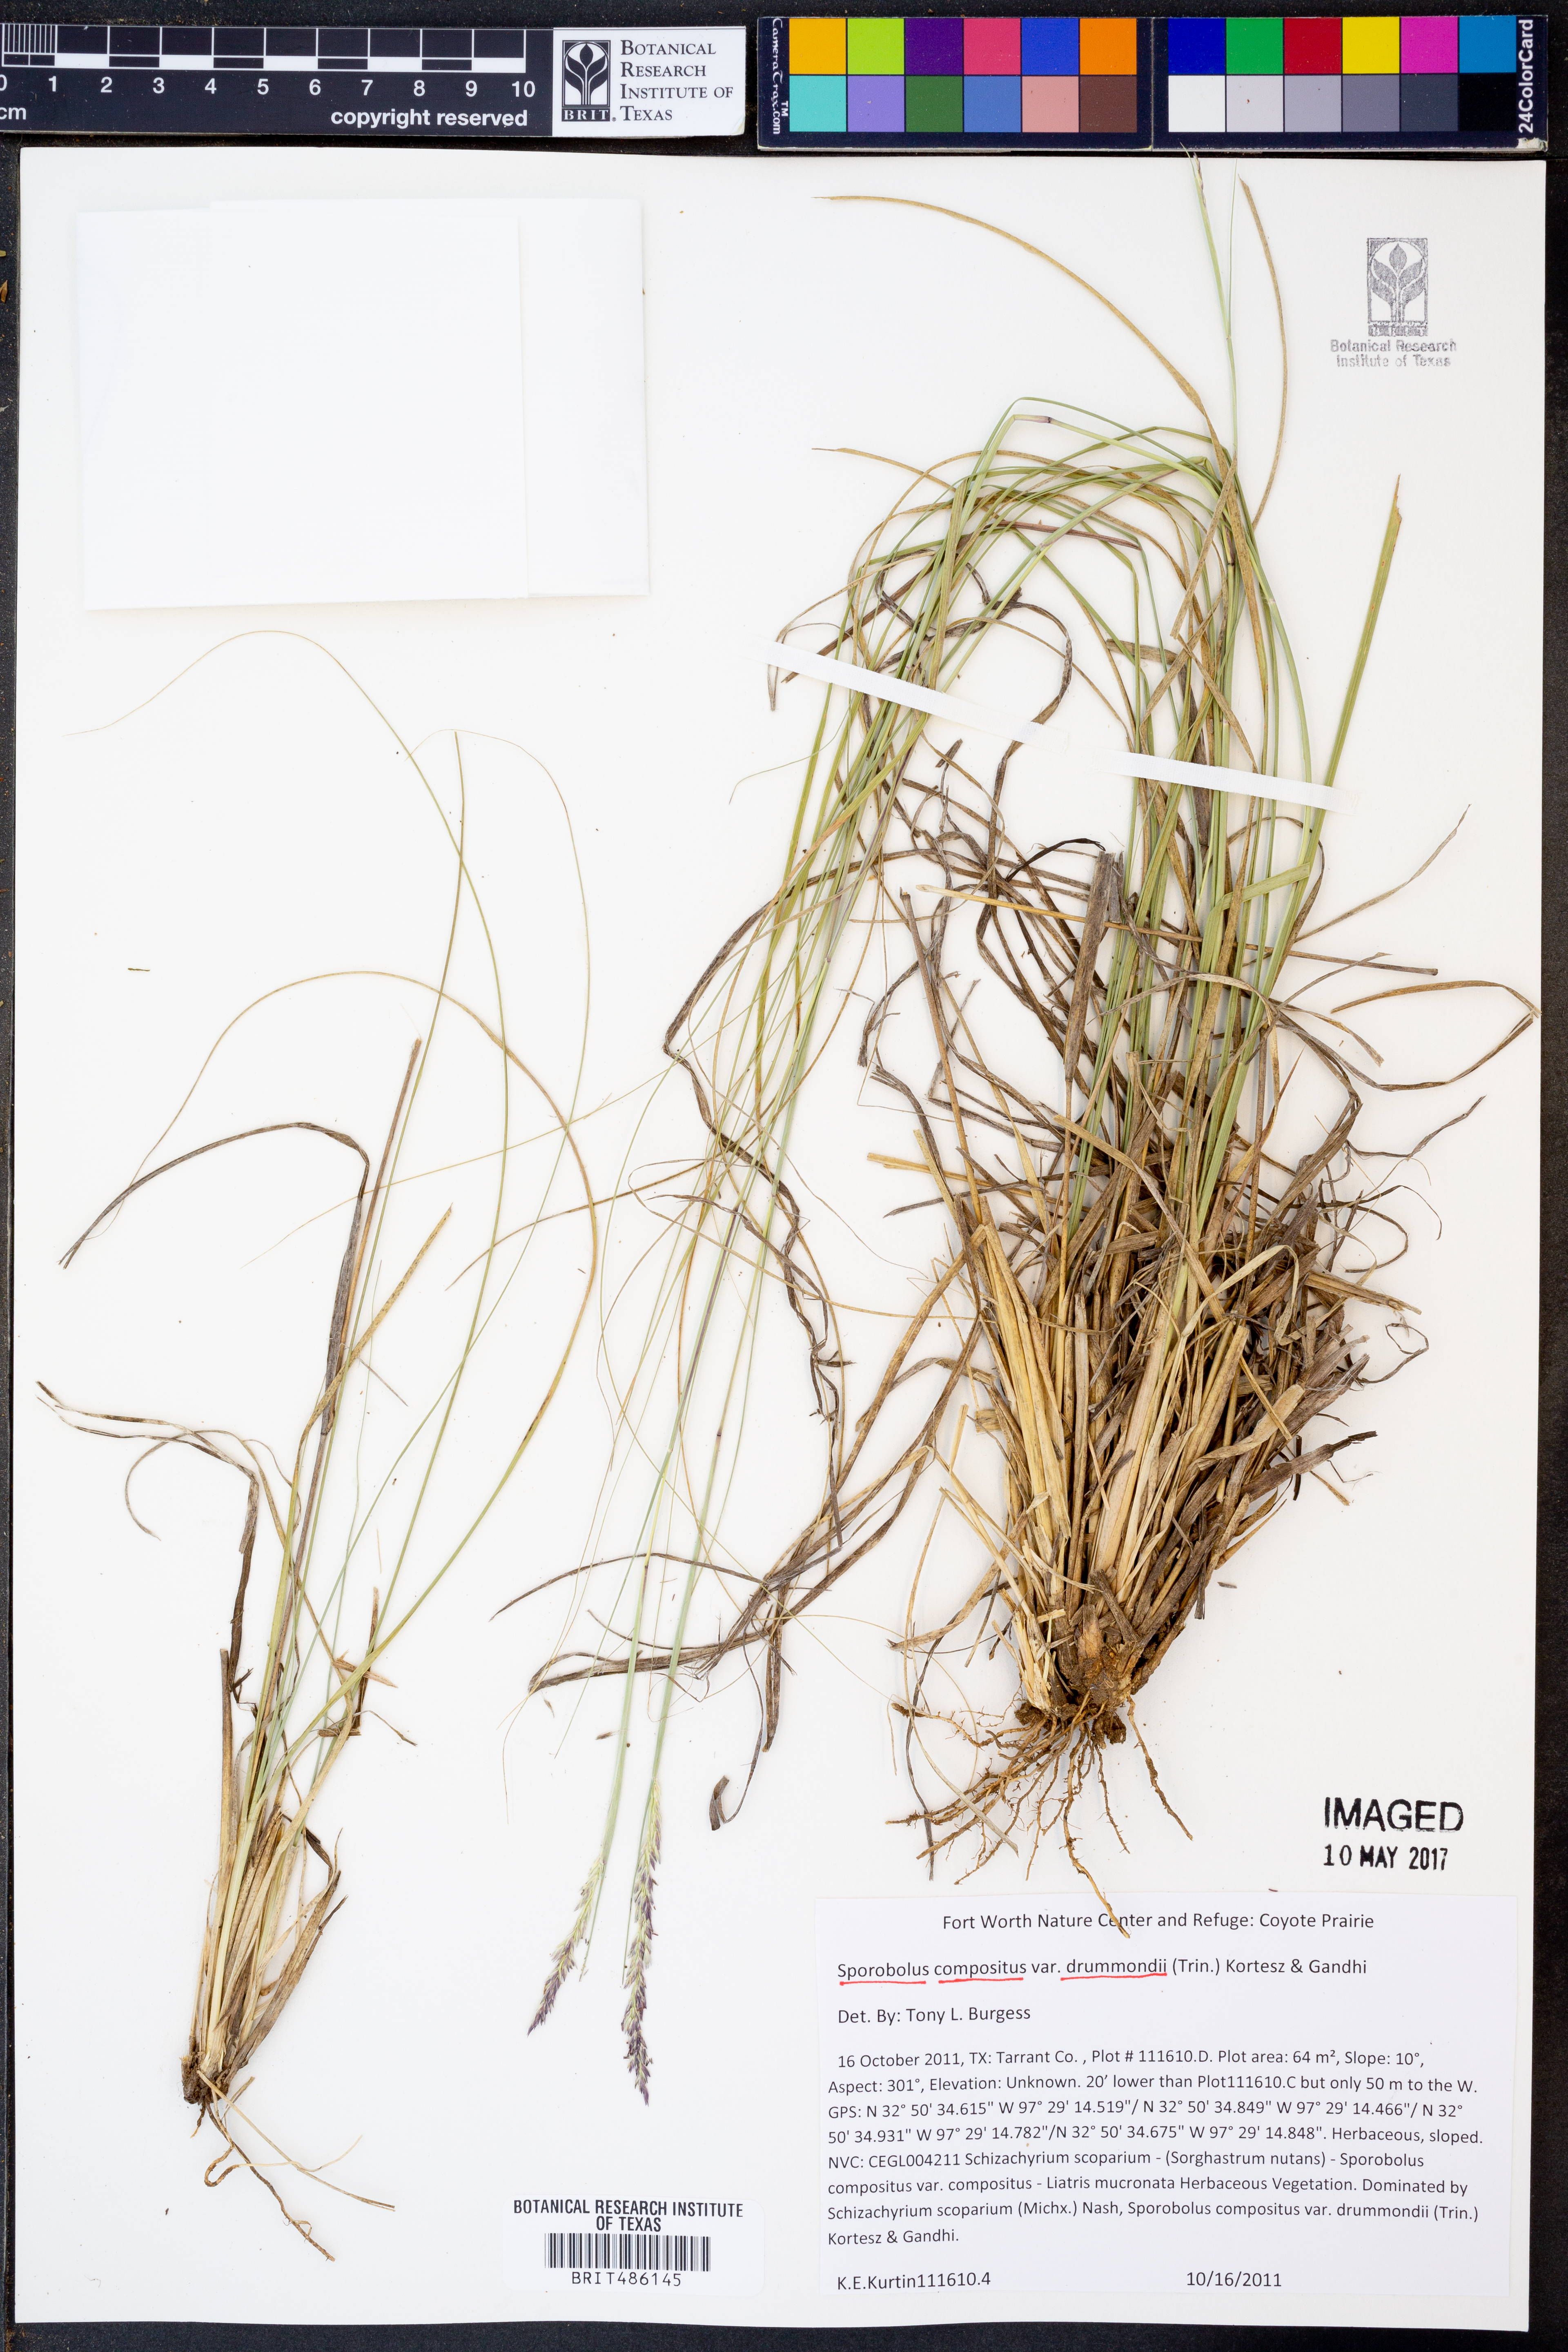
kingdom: Plantae
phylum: Tracheophyta
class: Liliopsida
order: Poales
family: Poaceae
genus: Sporobolus
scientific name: Sporobolus compositus
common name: Rough dropseed
